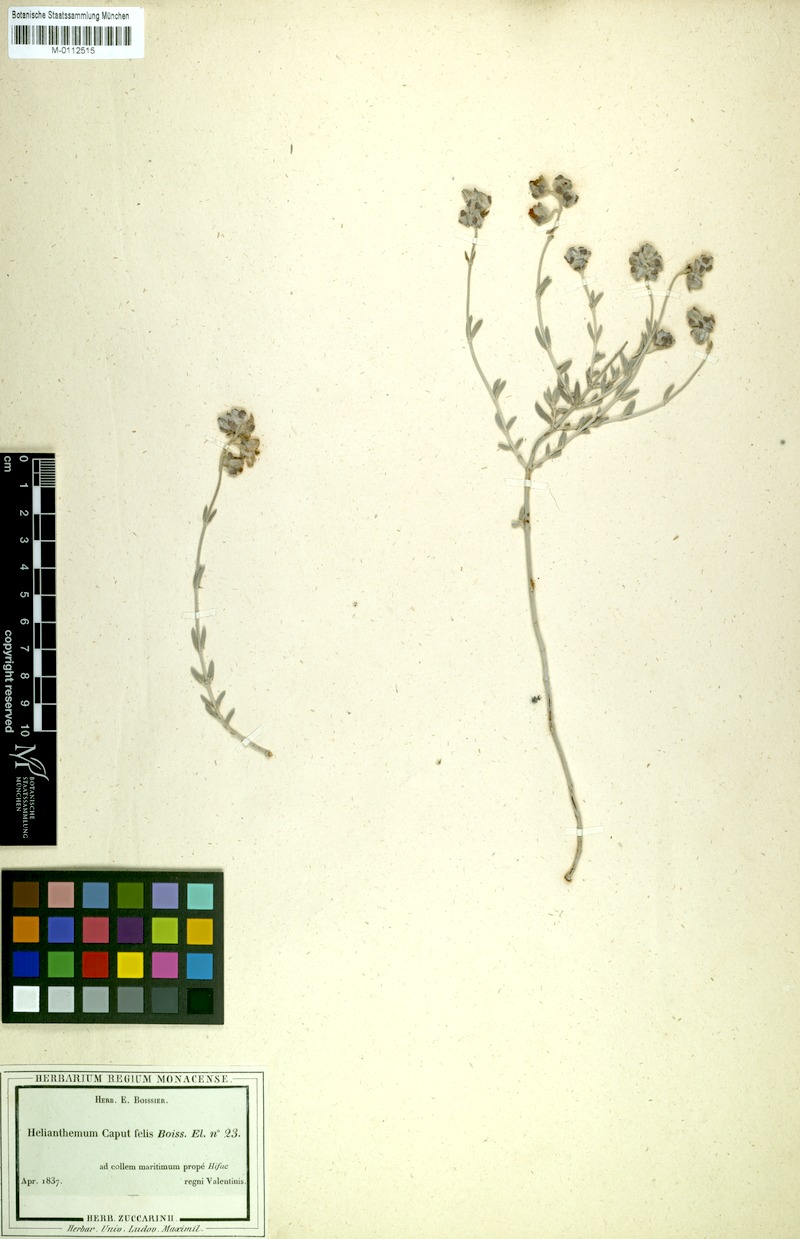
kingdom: Plantae
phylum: Tracheophyta
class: Magnoliopsida
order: Malvales
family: Cistaceae
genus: Helianthemum
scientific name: Helianthemum caput-felis
